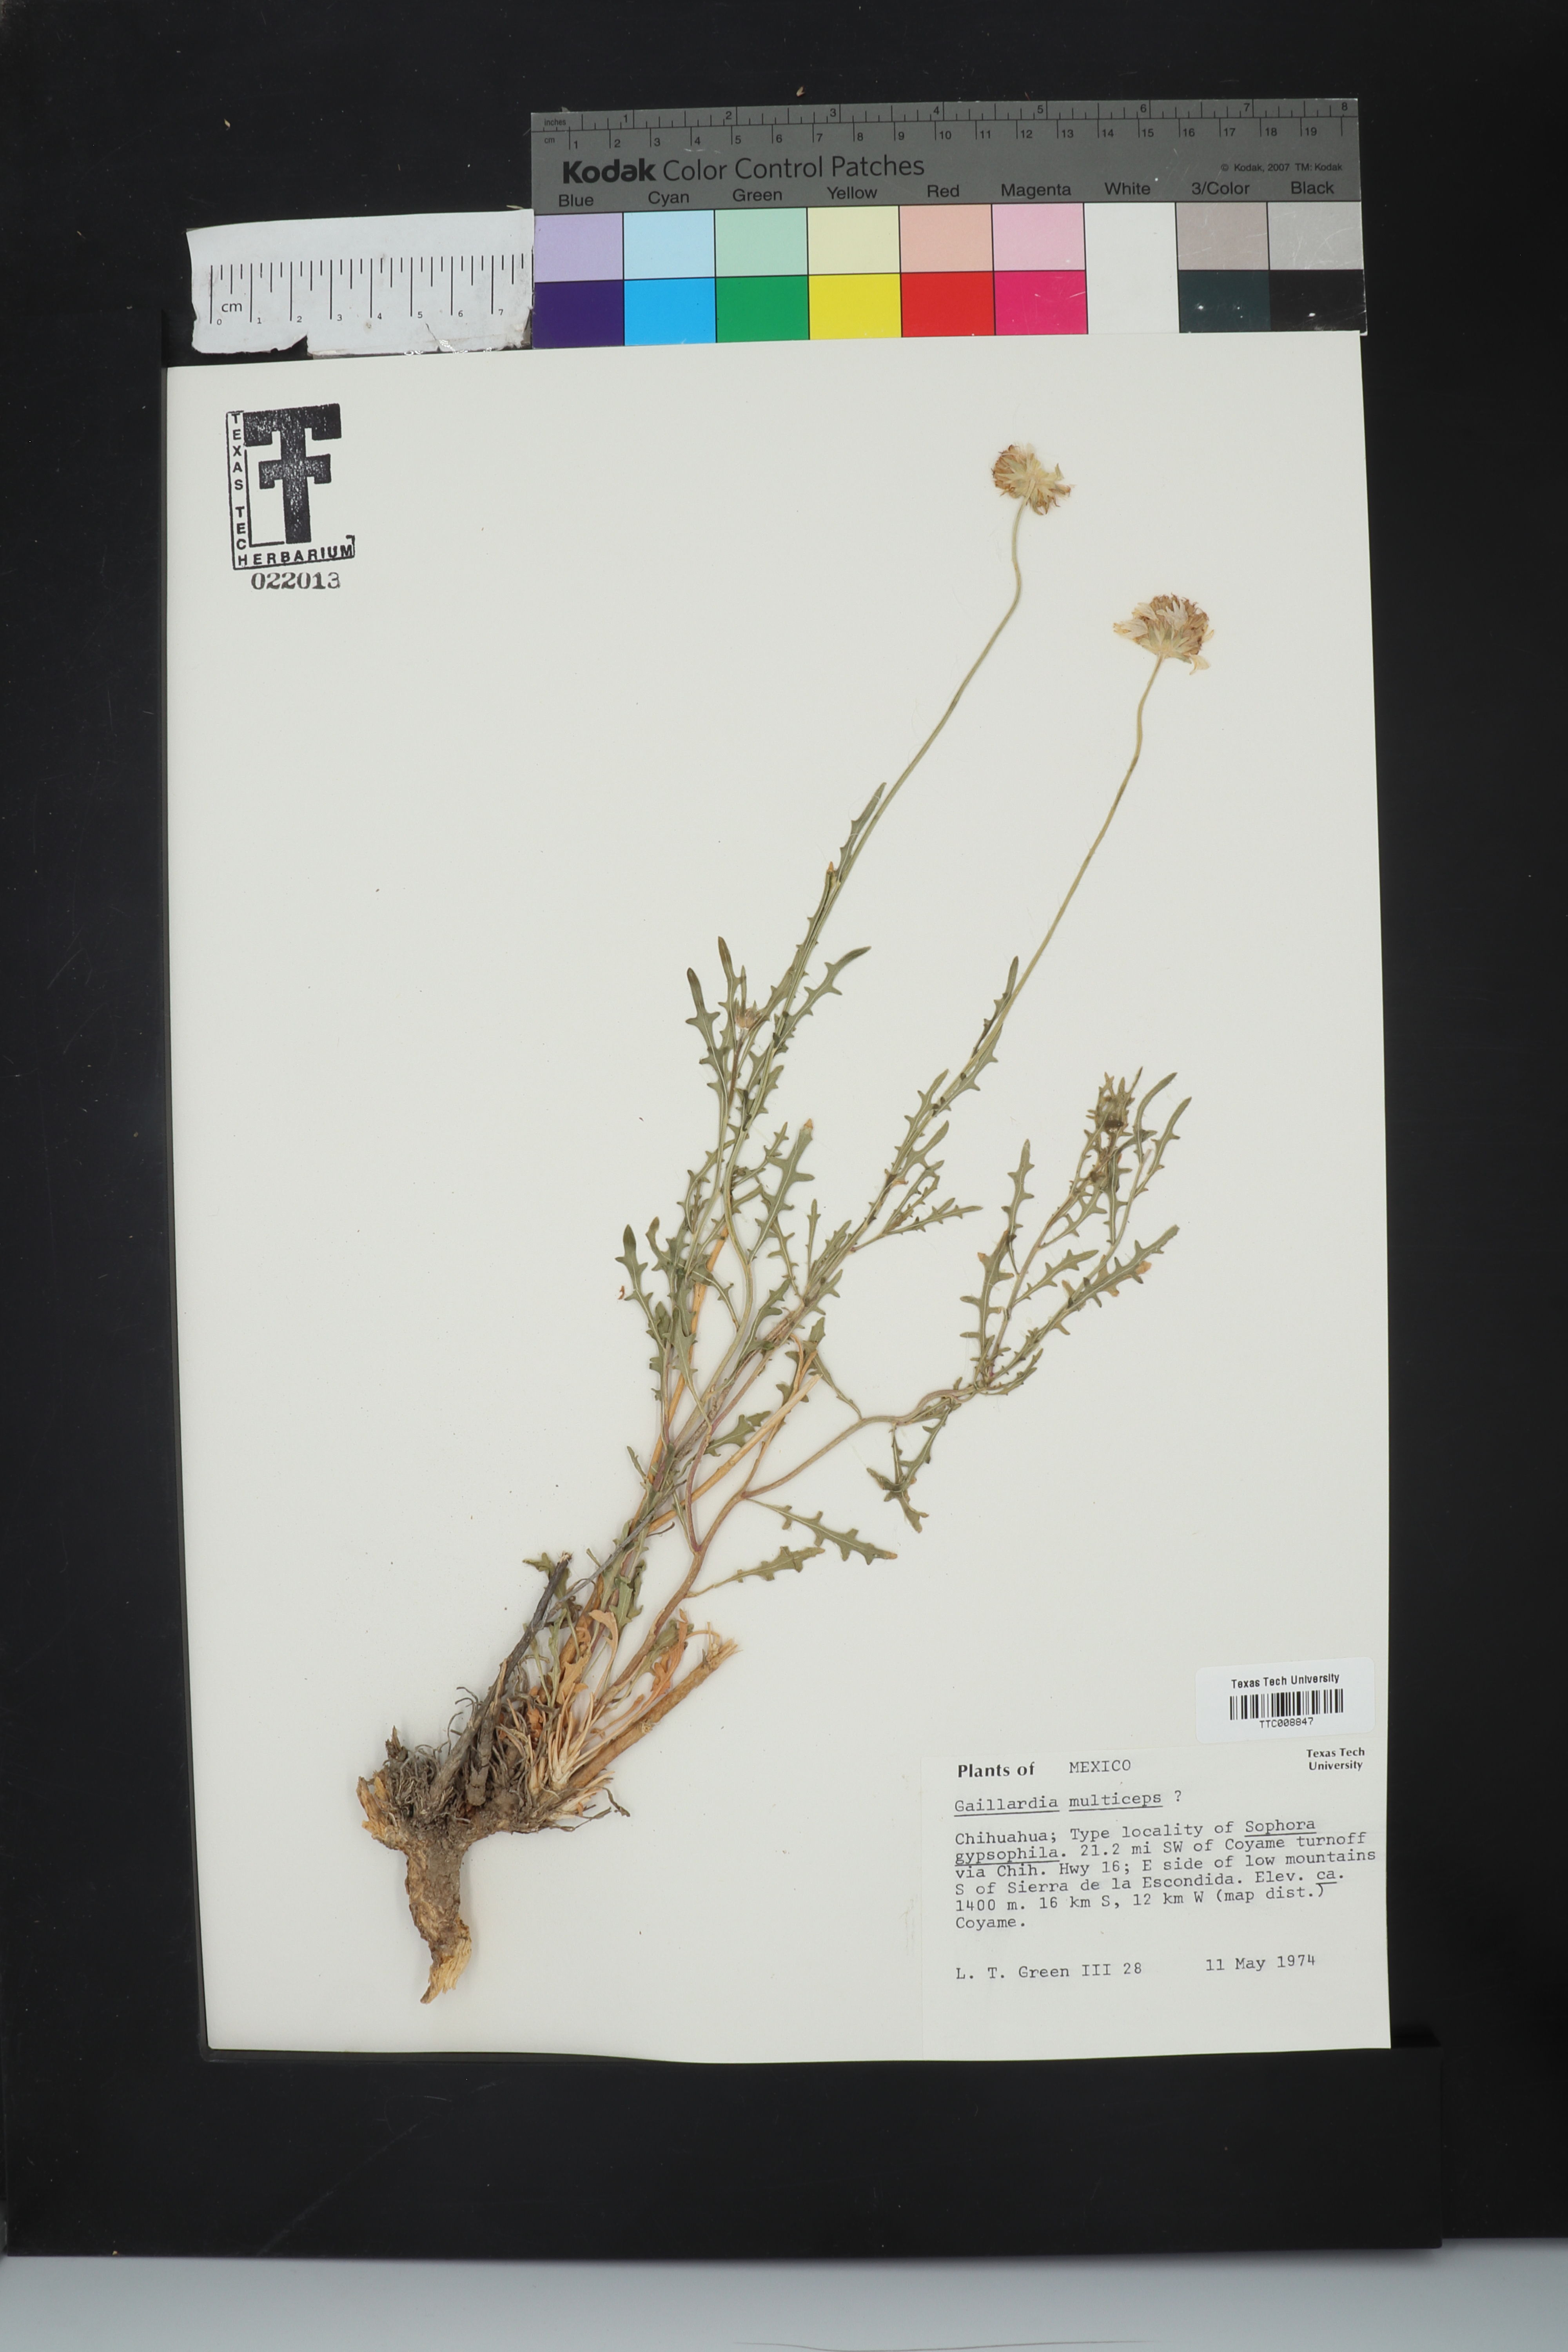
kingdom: Plantae
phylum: Tracheophyta
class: Magnoliopsida
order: Asterales
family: Asteraceae
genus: Gaillardia
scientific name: Gaillardia multiceps
